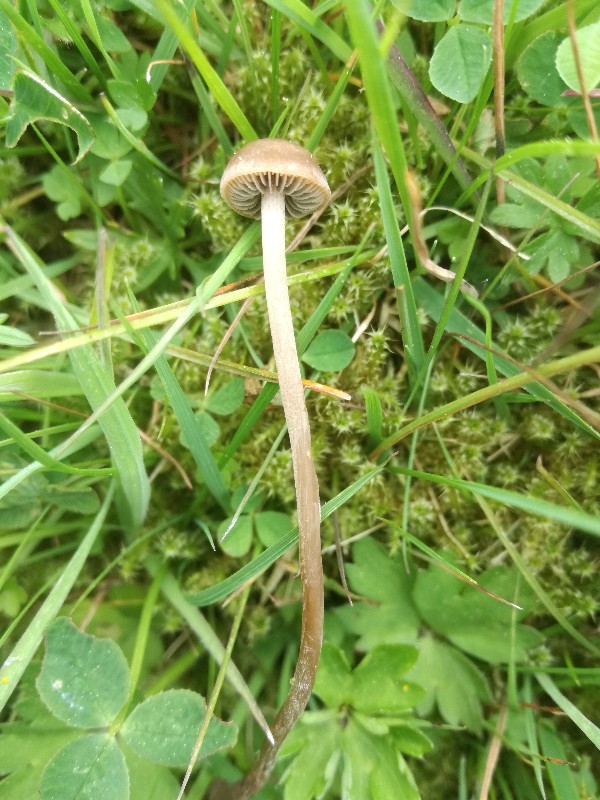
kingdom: Fungi
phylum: Basidiomycota
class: Agaricomycetes
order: Agaricales
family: Bolbitiaceae
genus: Panaeolina
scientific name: Panaeolina foenisecii
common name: høslætsvamp
